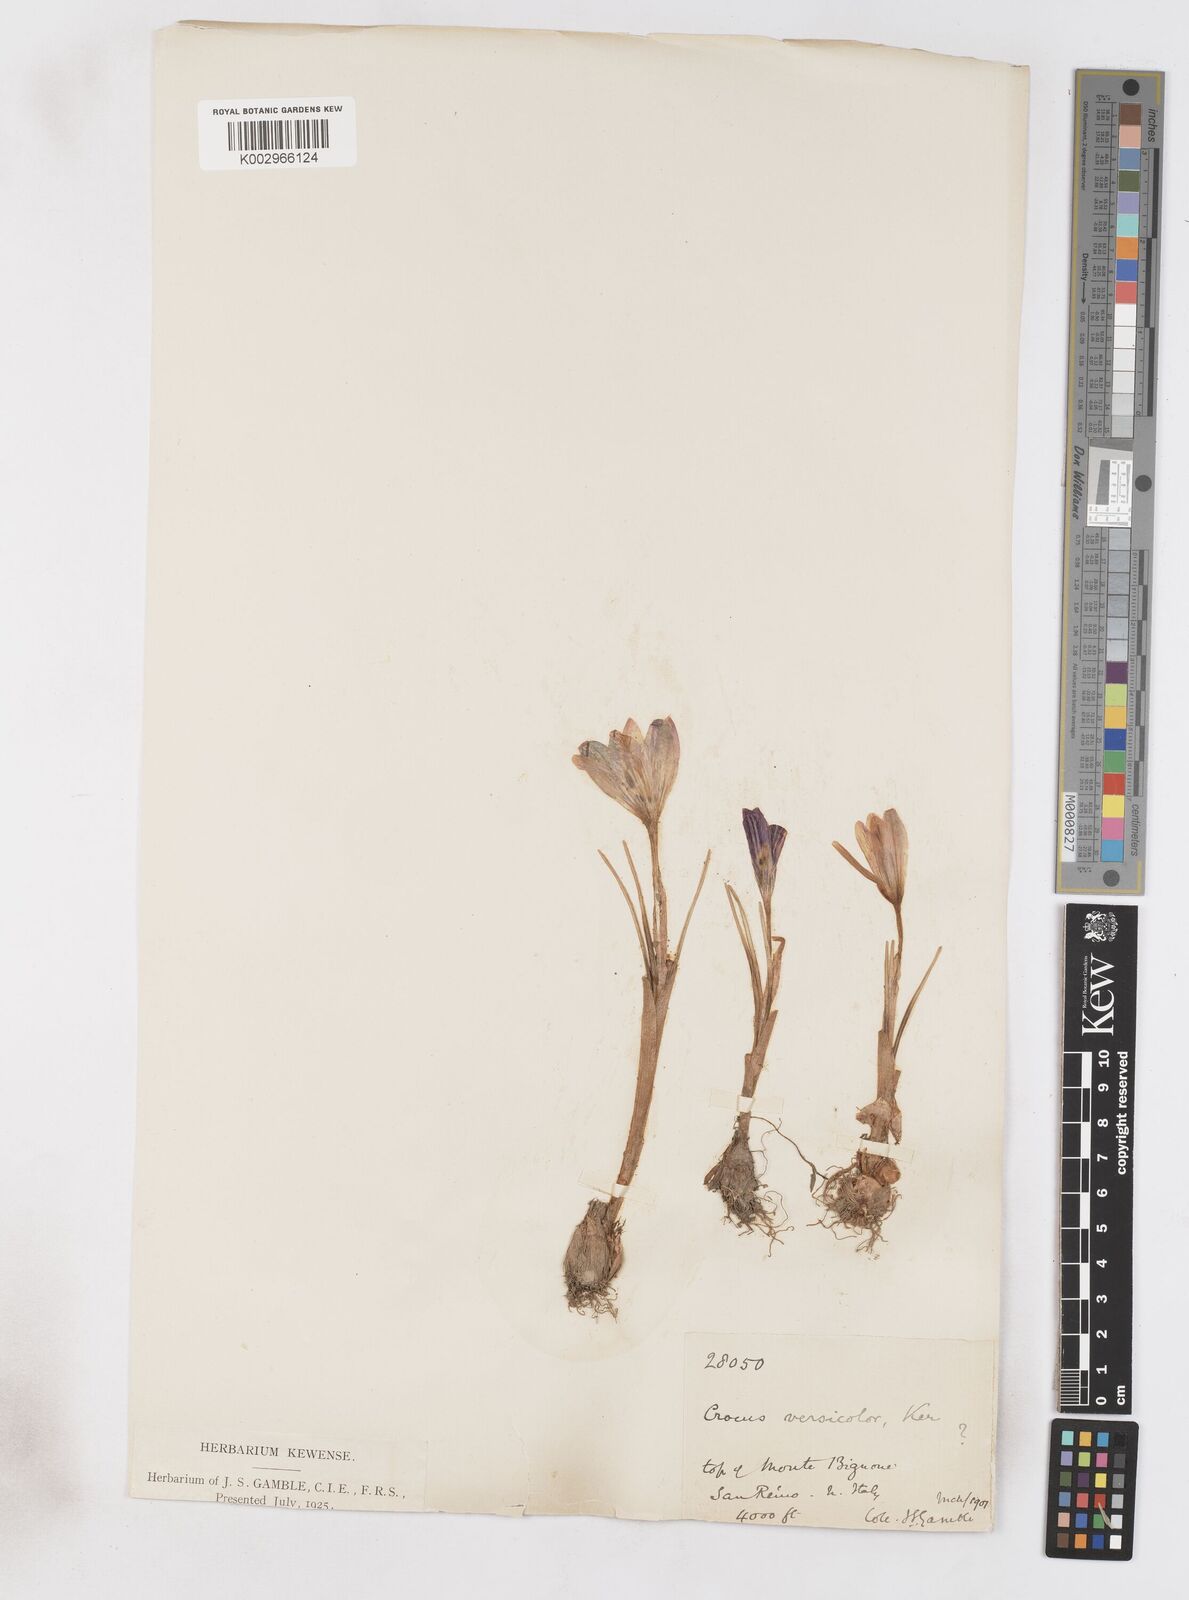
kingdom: Plantae
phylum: Tracheophyta
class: Liliopsida
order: Asparagales
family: Iridaceae
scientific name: Iridaceae
